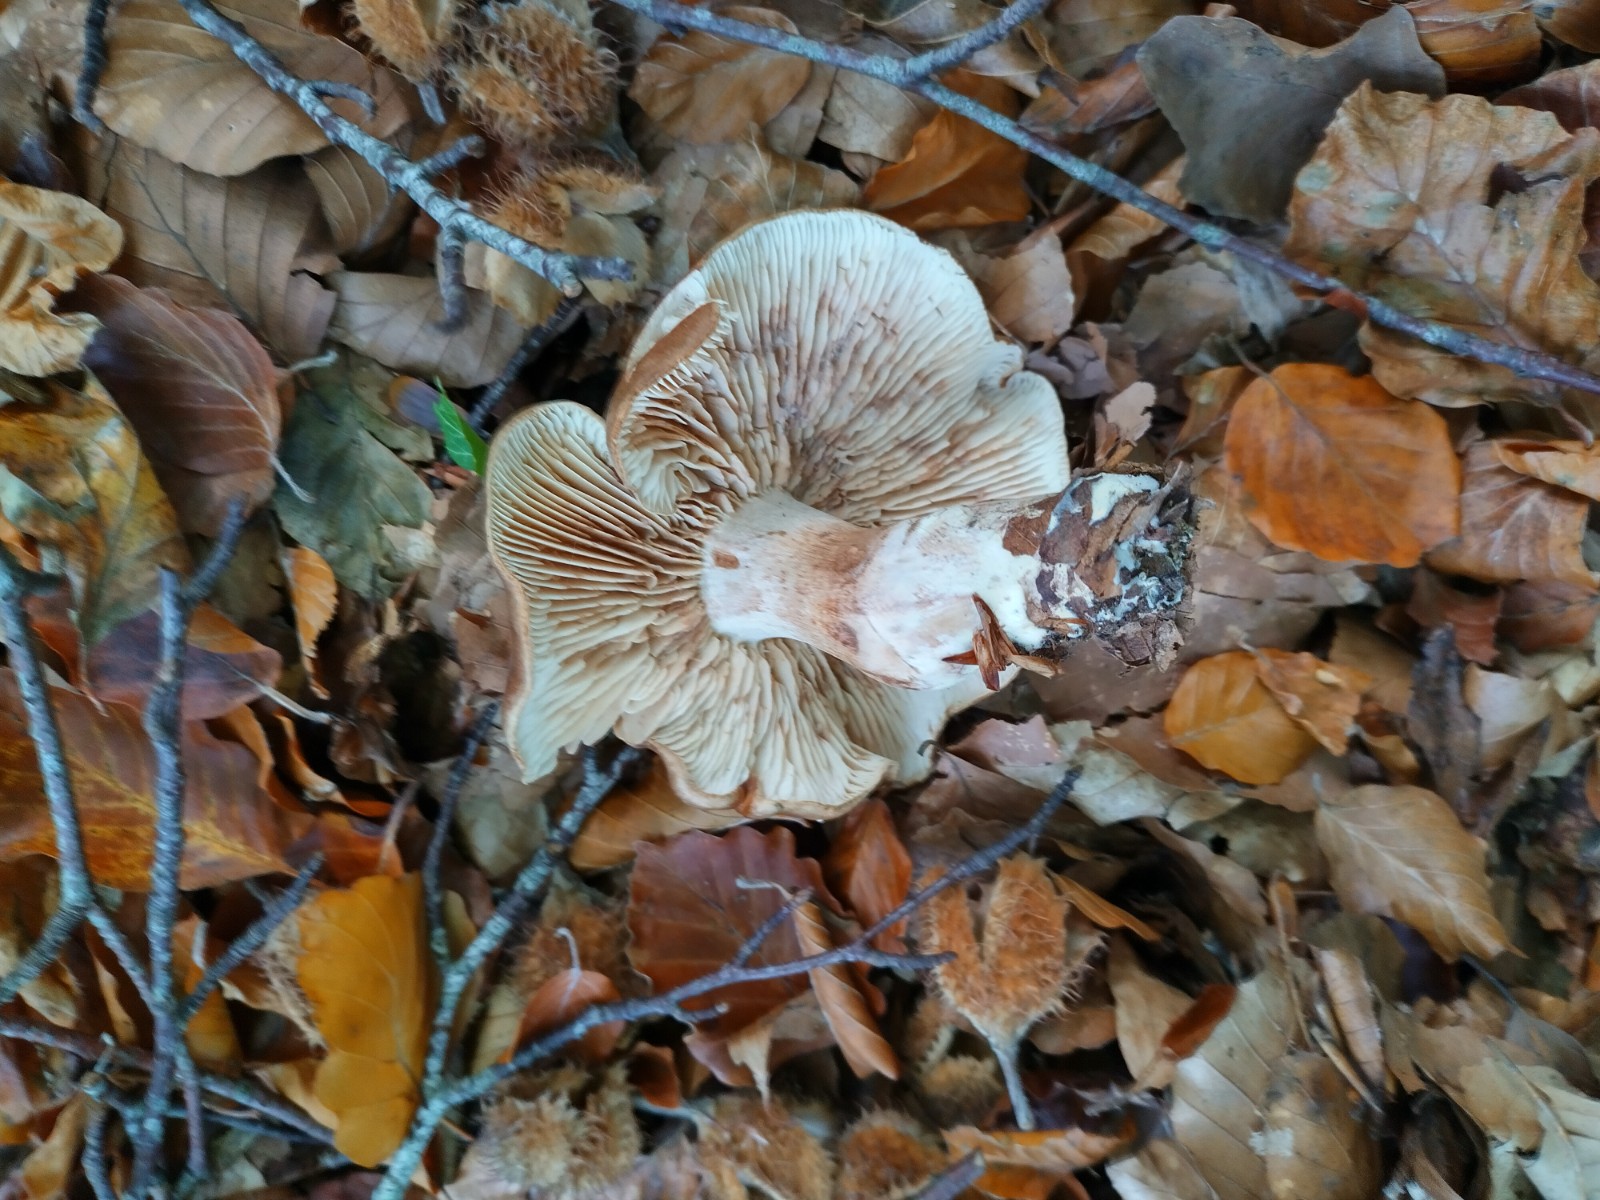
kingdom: Fungi
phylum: Basidiomycota
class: Agaricomycetes
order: Agaricales
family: Tricholomataceae
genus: Tricholoma
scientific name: Tricholoma ustale
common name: sveden ridderhat
